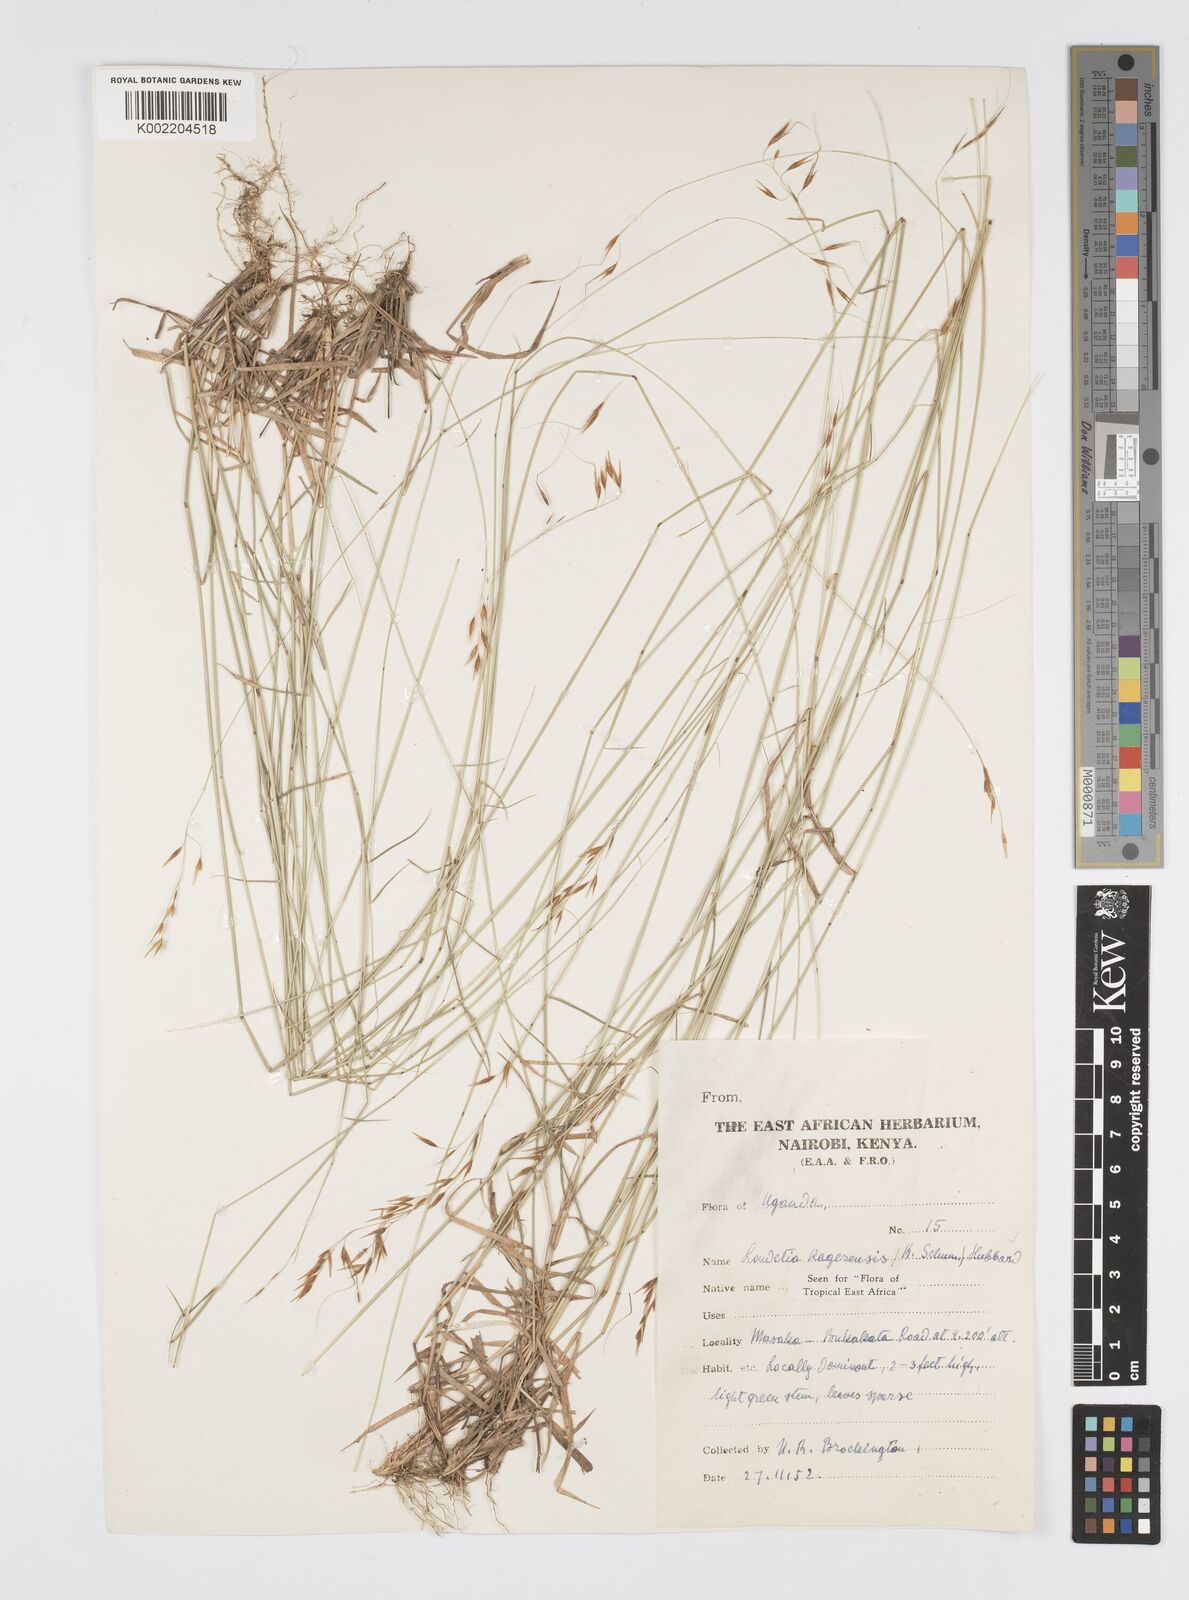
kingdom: Plantae
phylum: Tracheophyta
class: Liliopsida
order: Poales
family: Poaceae
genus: Loudetia
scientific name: Loudetia kagerensis
